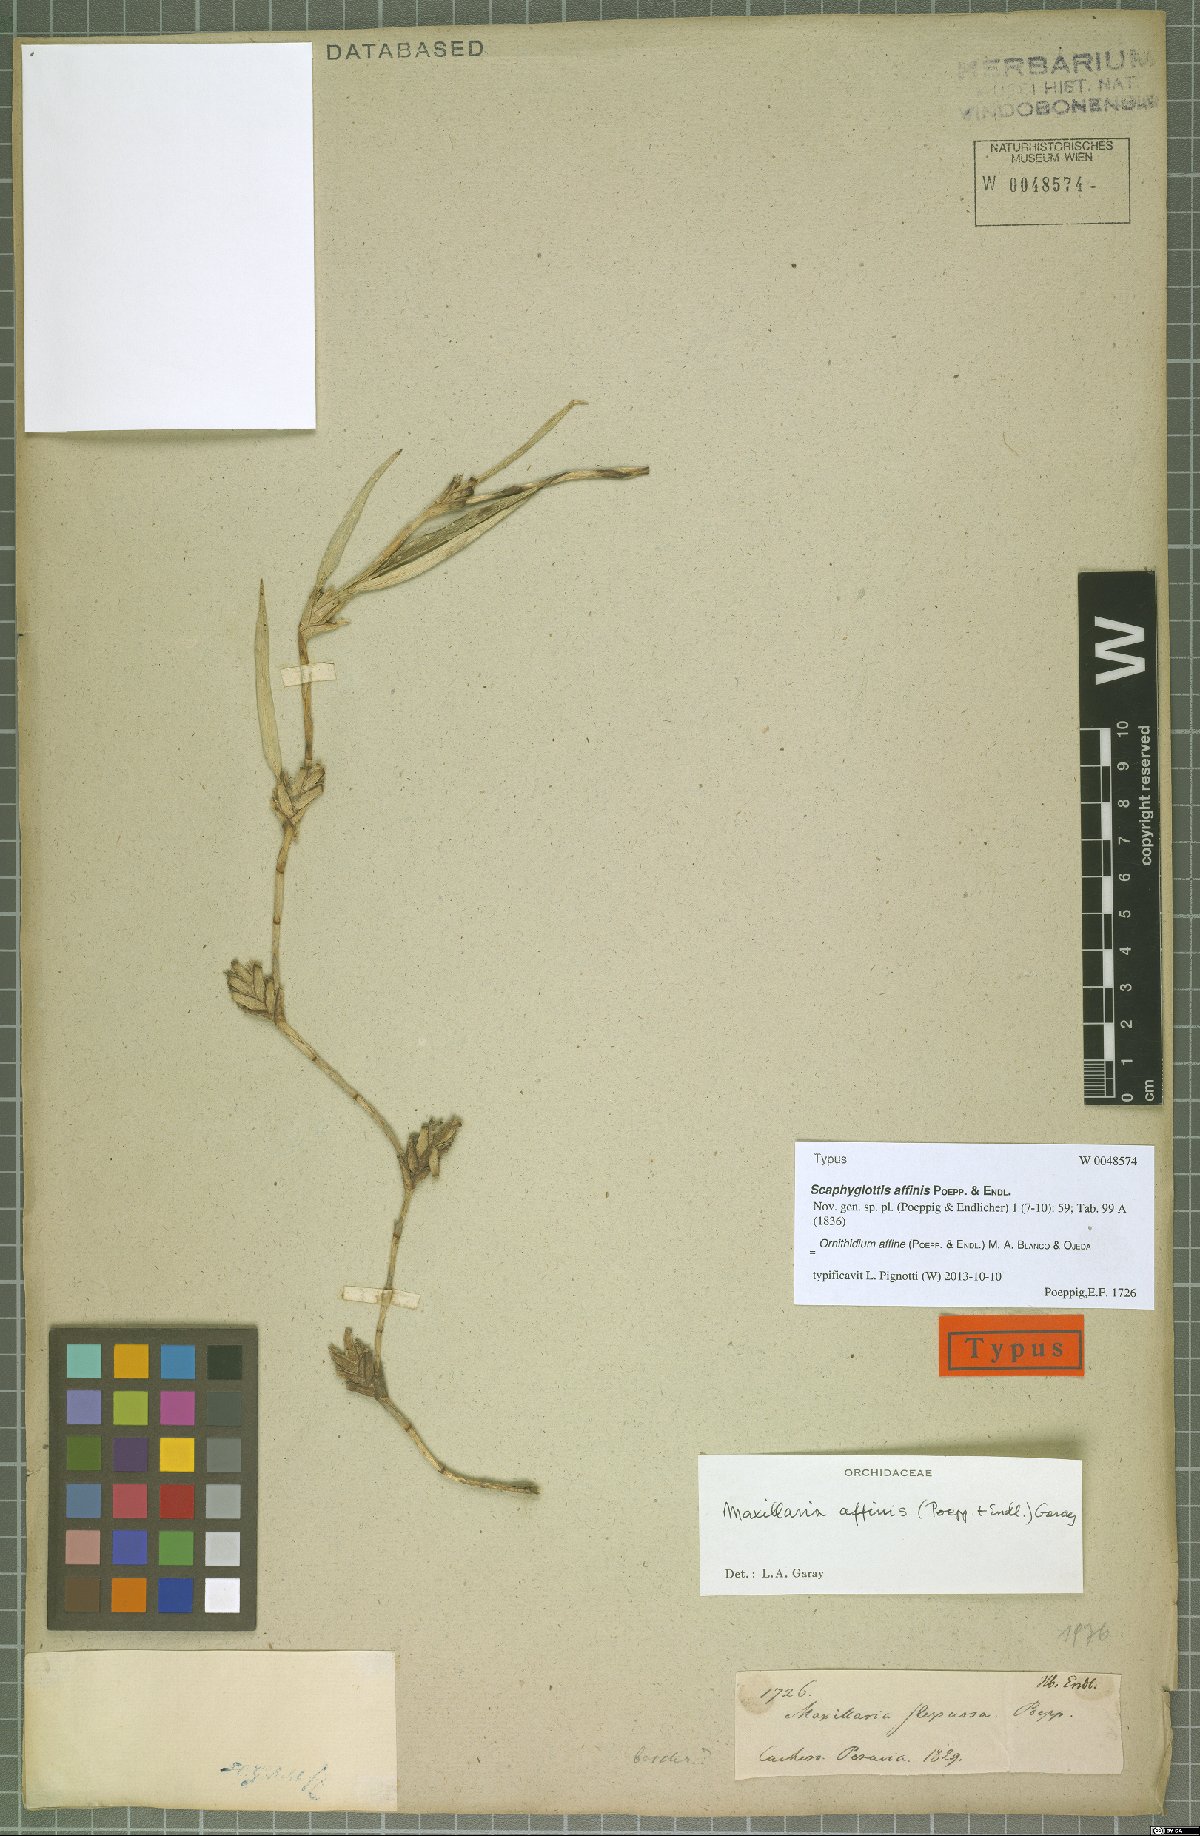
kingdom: Plantae
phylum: Tracheophyta
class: Liliopsida
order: Asparagales
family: Orchidaceae
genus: Maxillaria
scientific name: Maxillaria affinis
